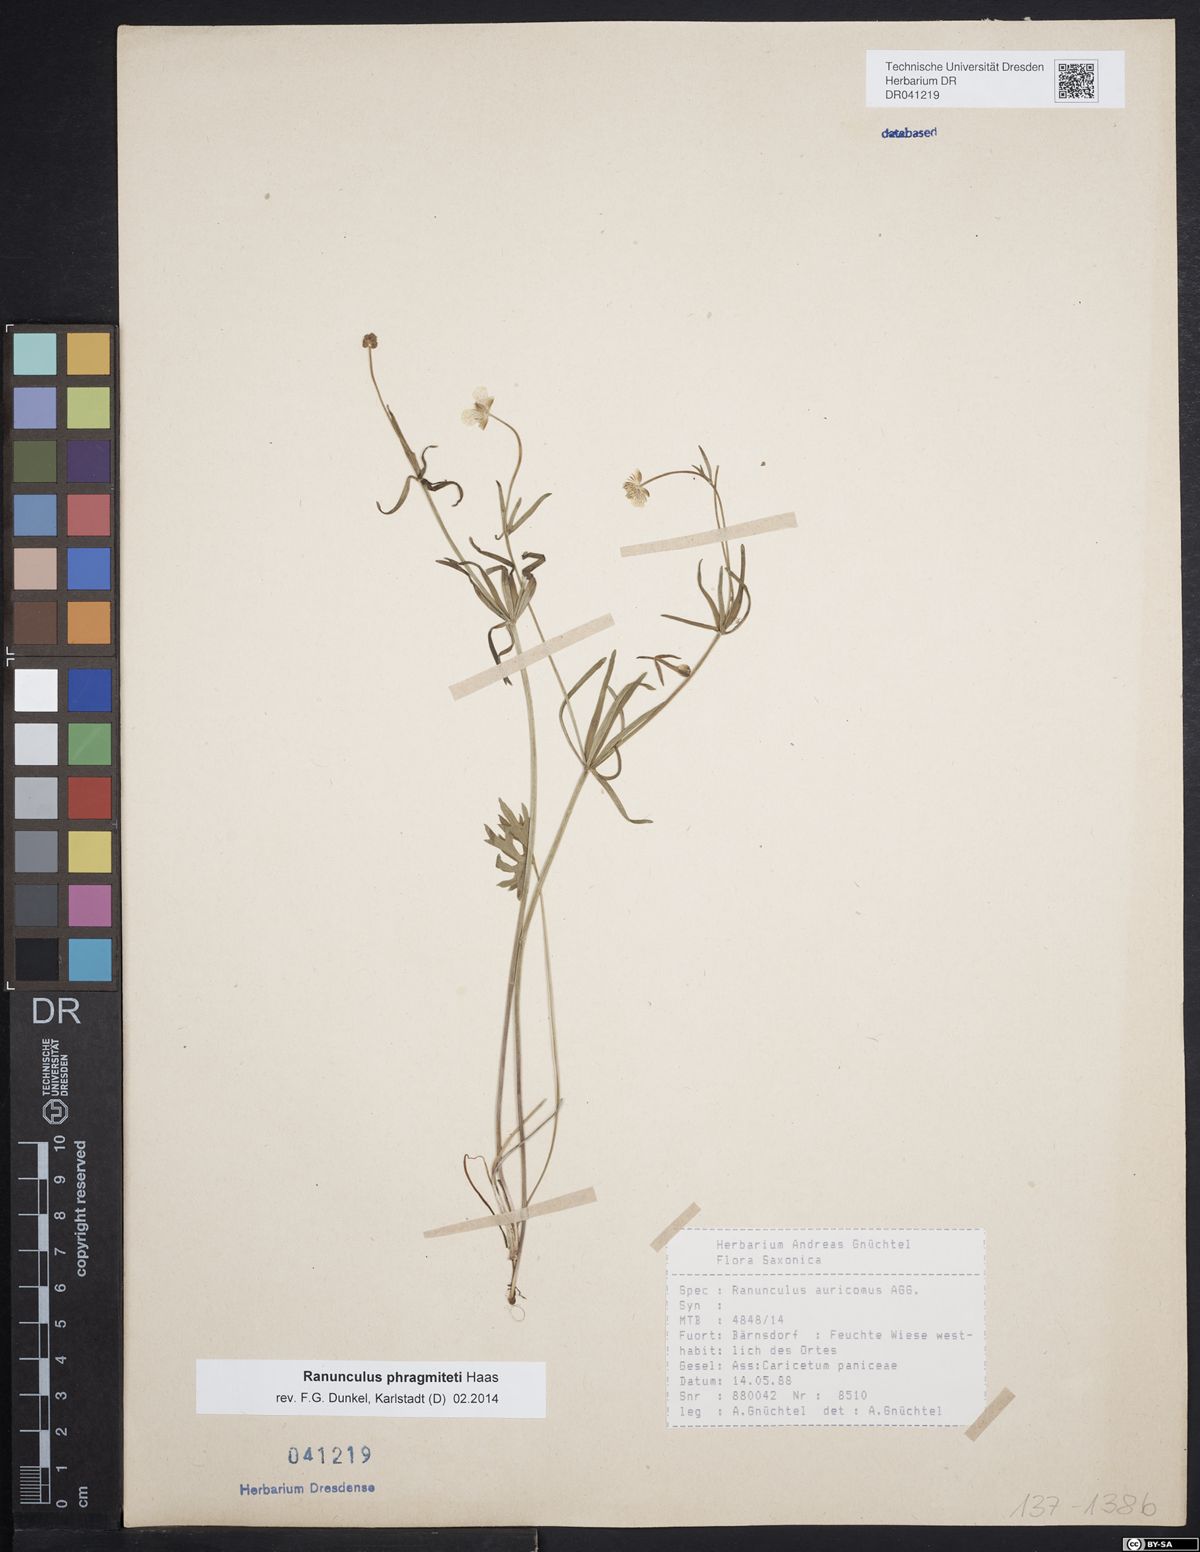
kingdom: Plantae
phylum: Tracheophyta
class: Magnoliopsida
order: Ranunculales
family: Ranunculaceae
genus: Ranunculus
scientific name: Ranunculus phragmiteti
